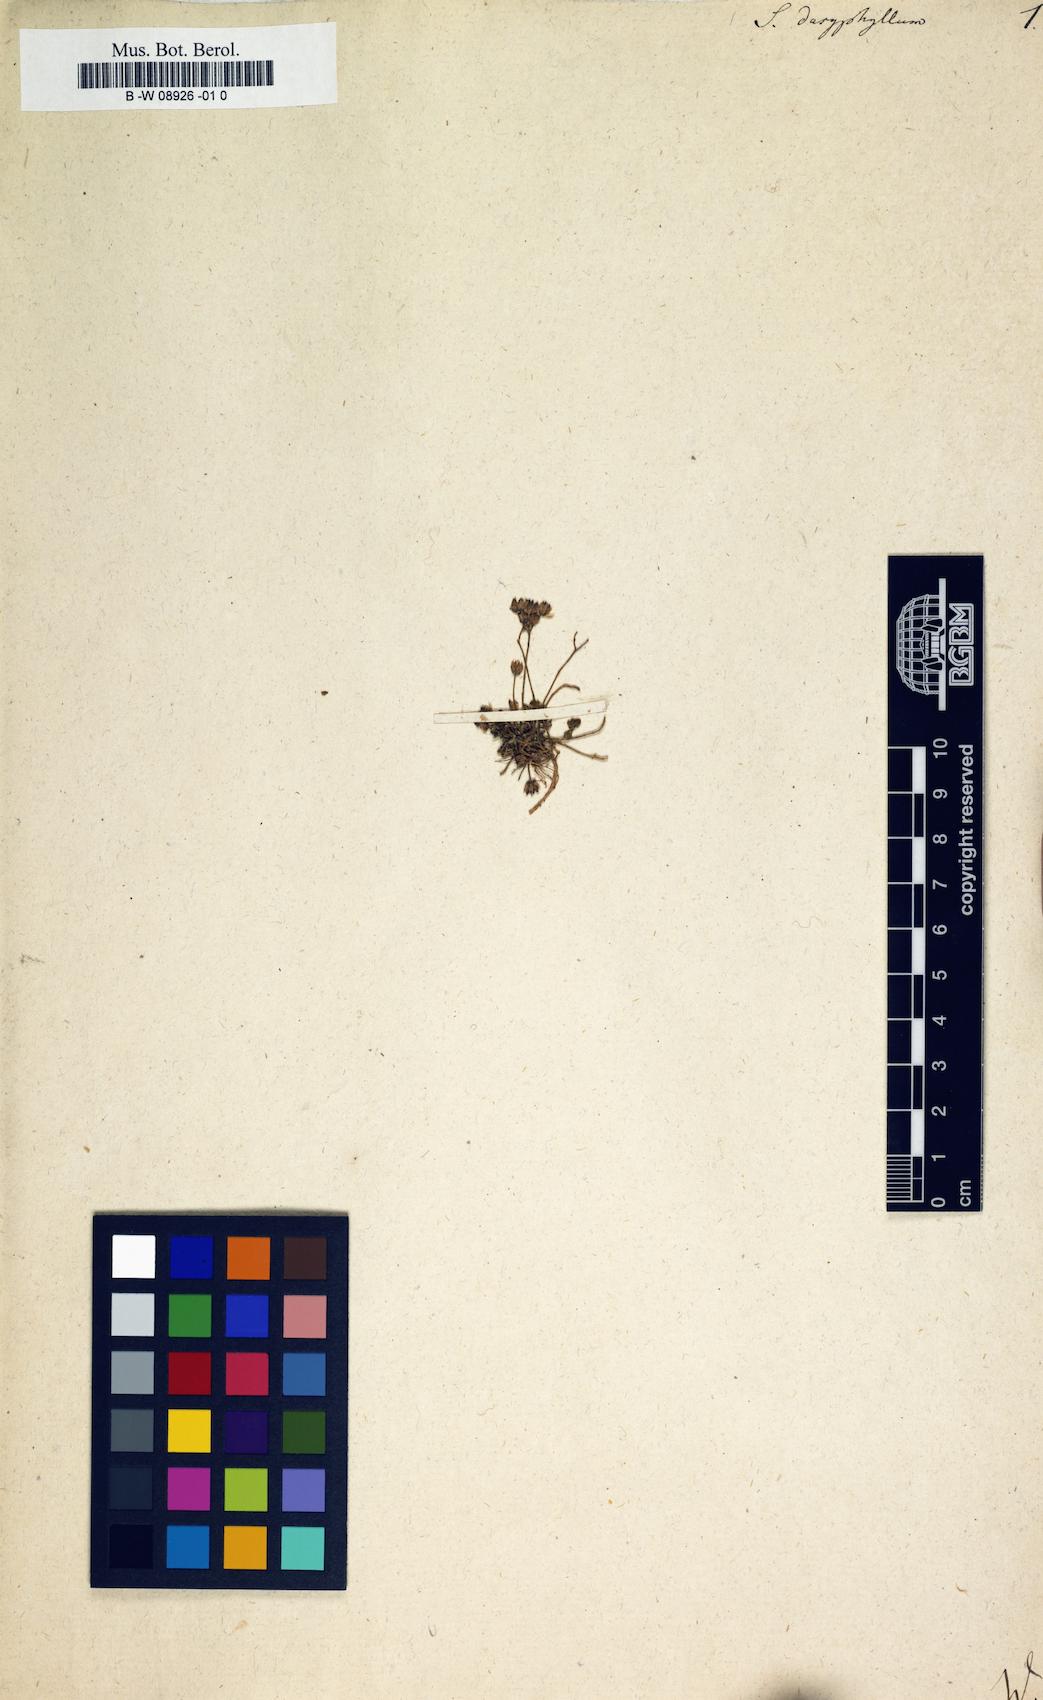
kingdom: Plantae
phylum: Tracheophyta
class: Magnoliopsida
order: Saxifragales
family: Crassulaceae
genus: Sedum
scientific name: Sedum dasyphyllum
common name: Thick-leaf stonecrop
